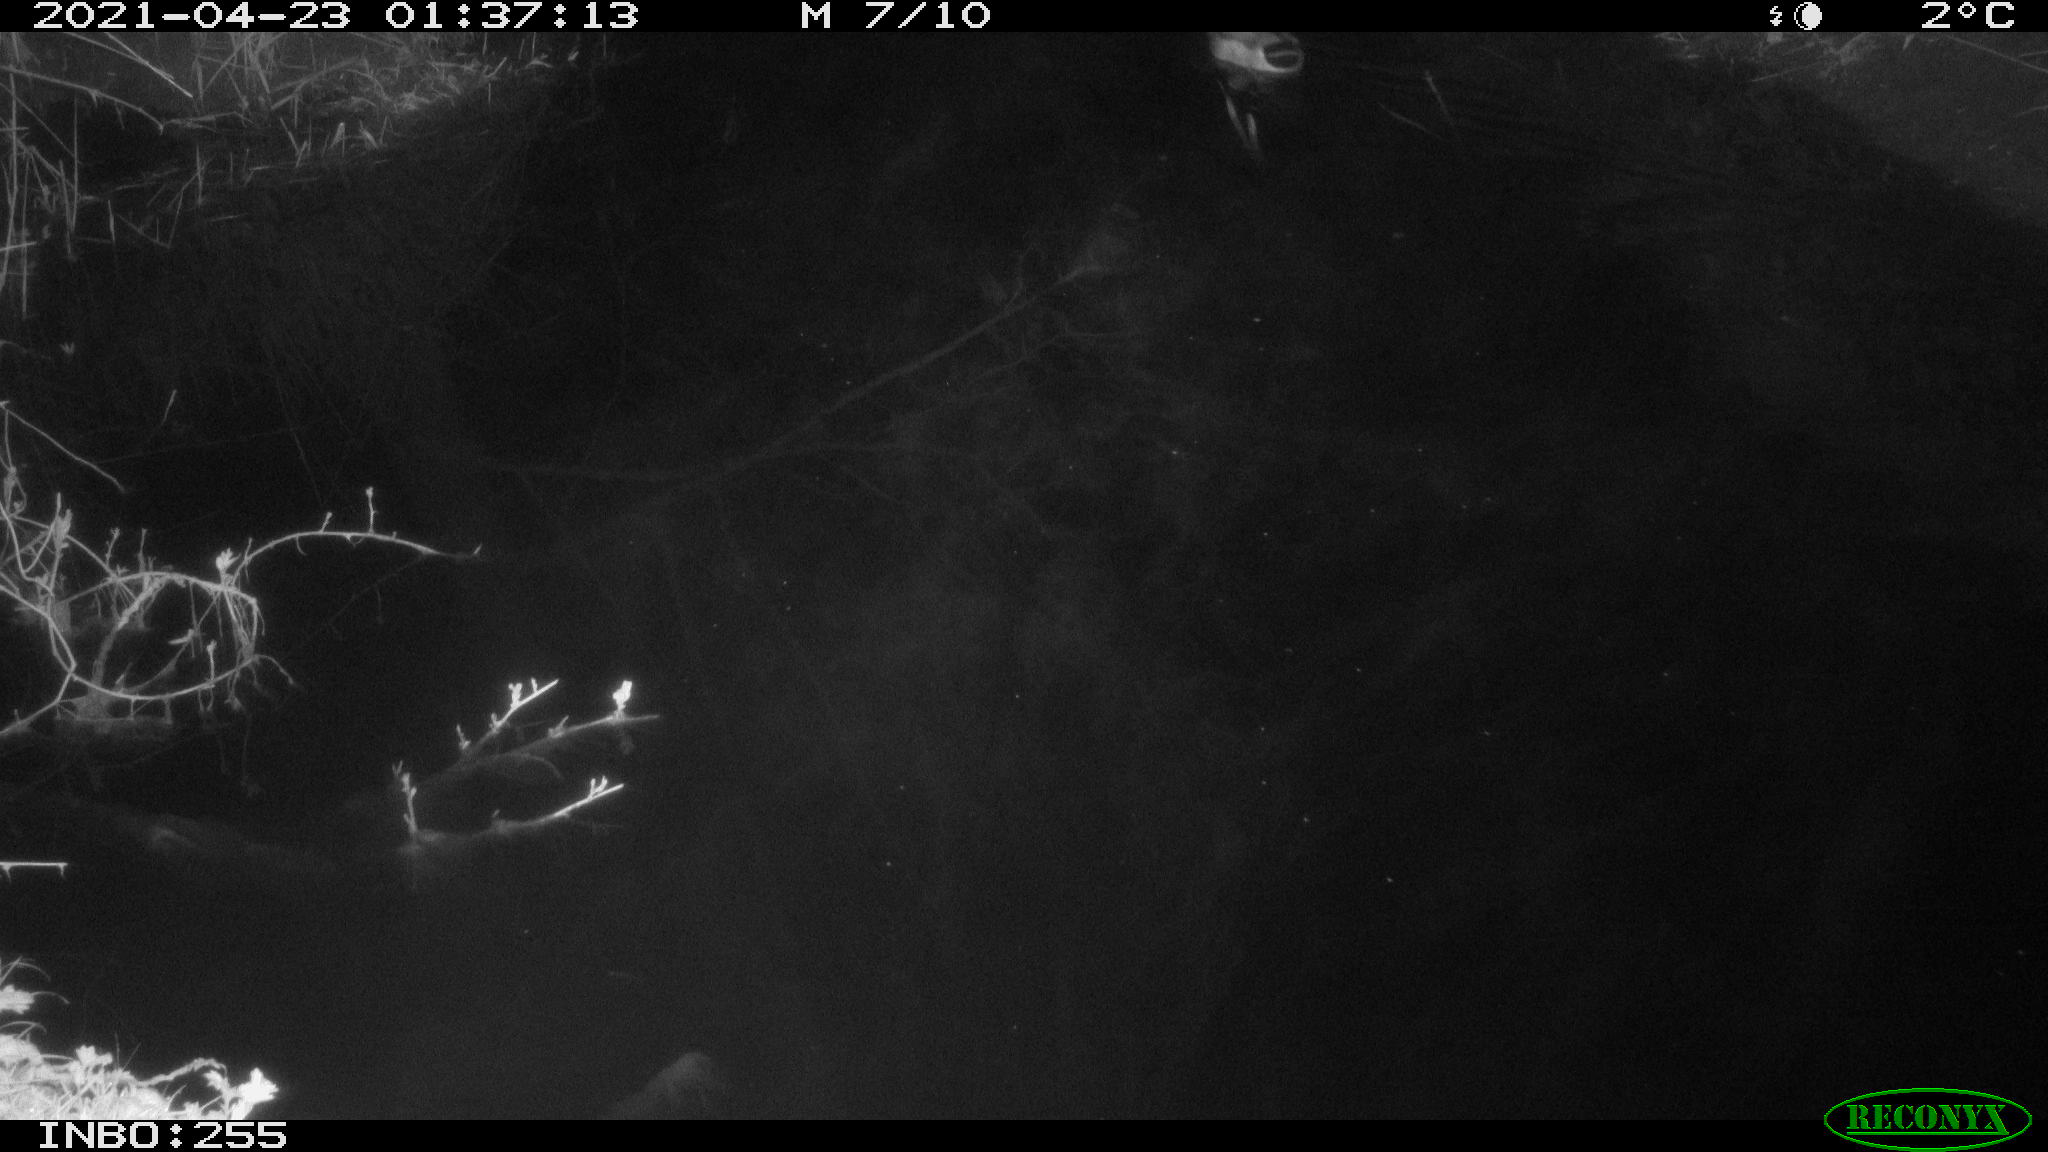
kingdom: Animalia
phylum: Chordata
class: Aves
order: Anseriformes
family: Anatidae
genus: Anas
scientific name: Anas platyrhynchos
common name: Mallard
